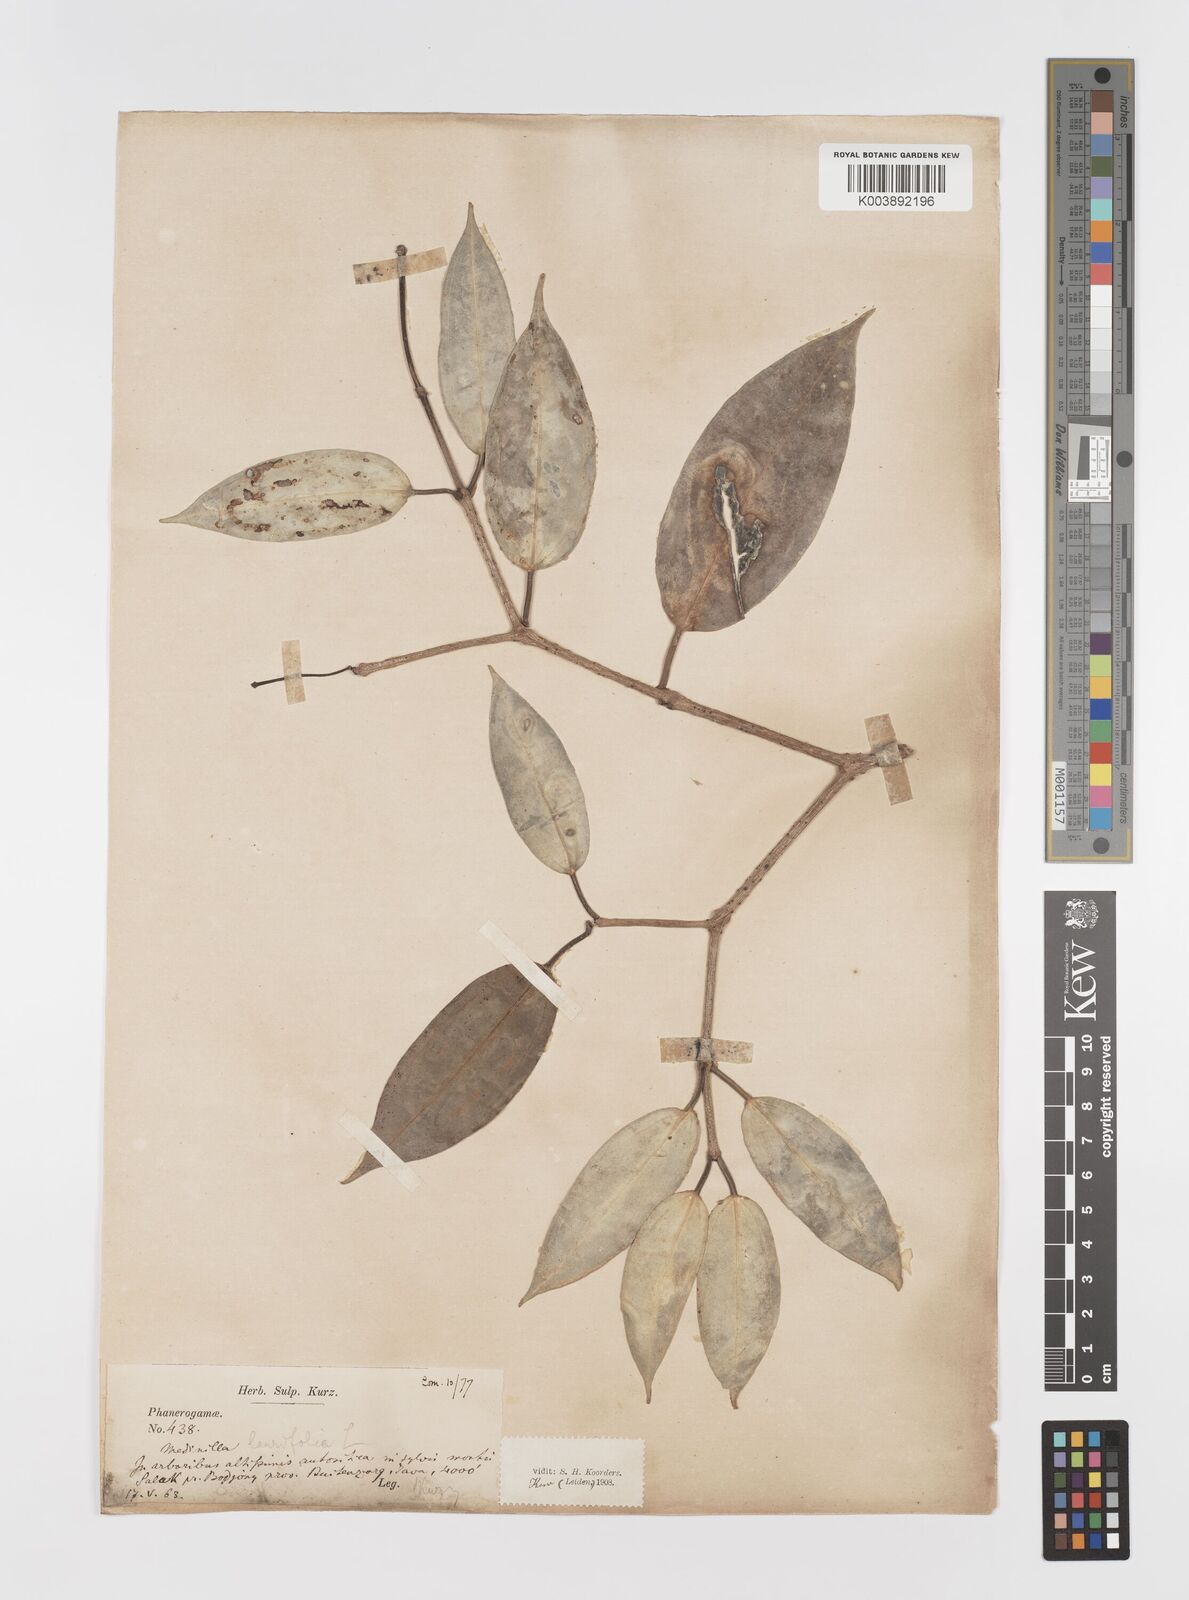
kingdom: Plantae
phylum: Tracheophyta
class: Magnoliopsida
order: Myrtales
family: Melastomataceae
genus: Medinilla
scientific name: Medinilla laurifolia
